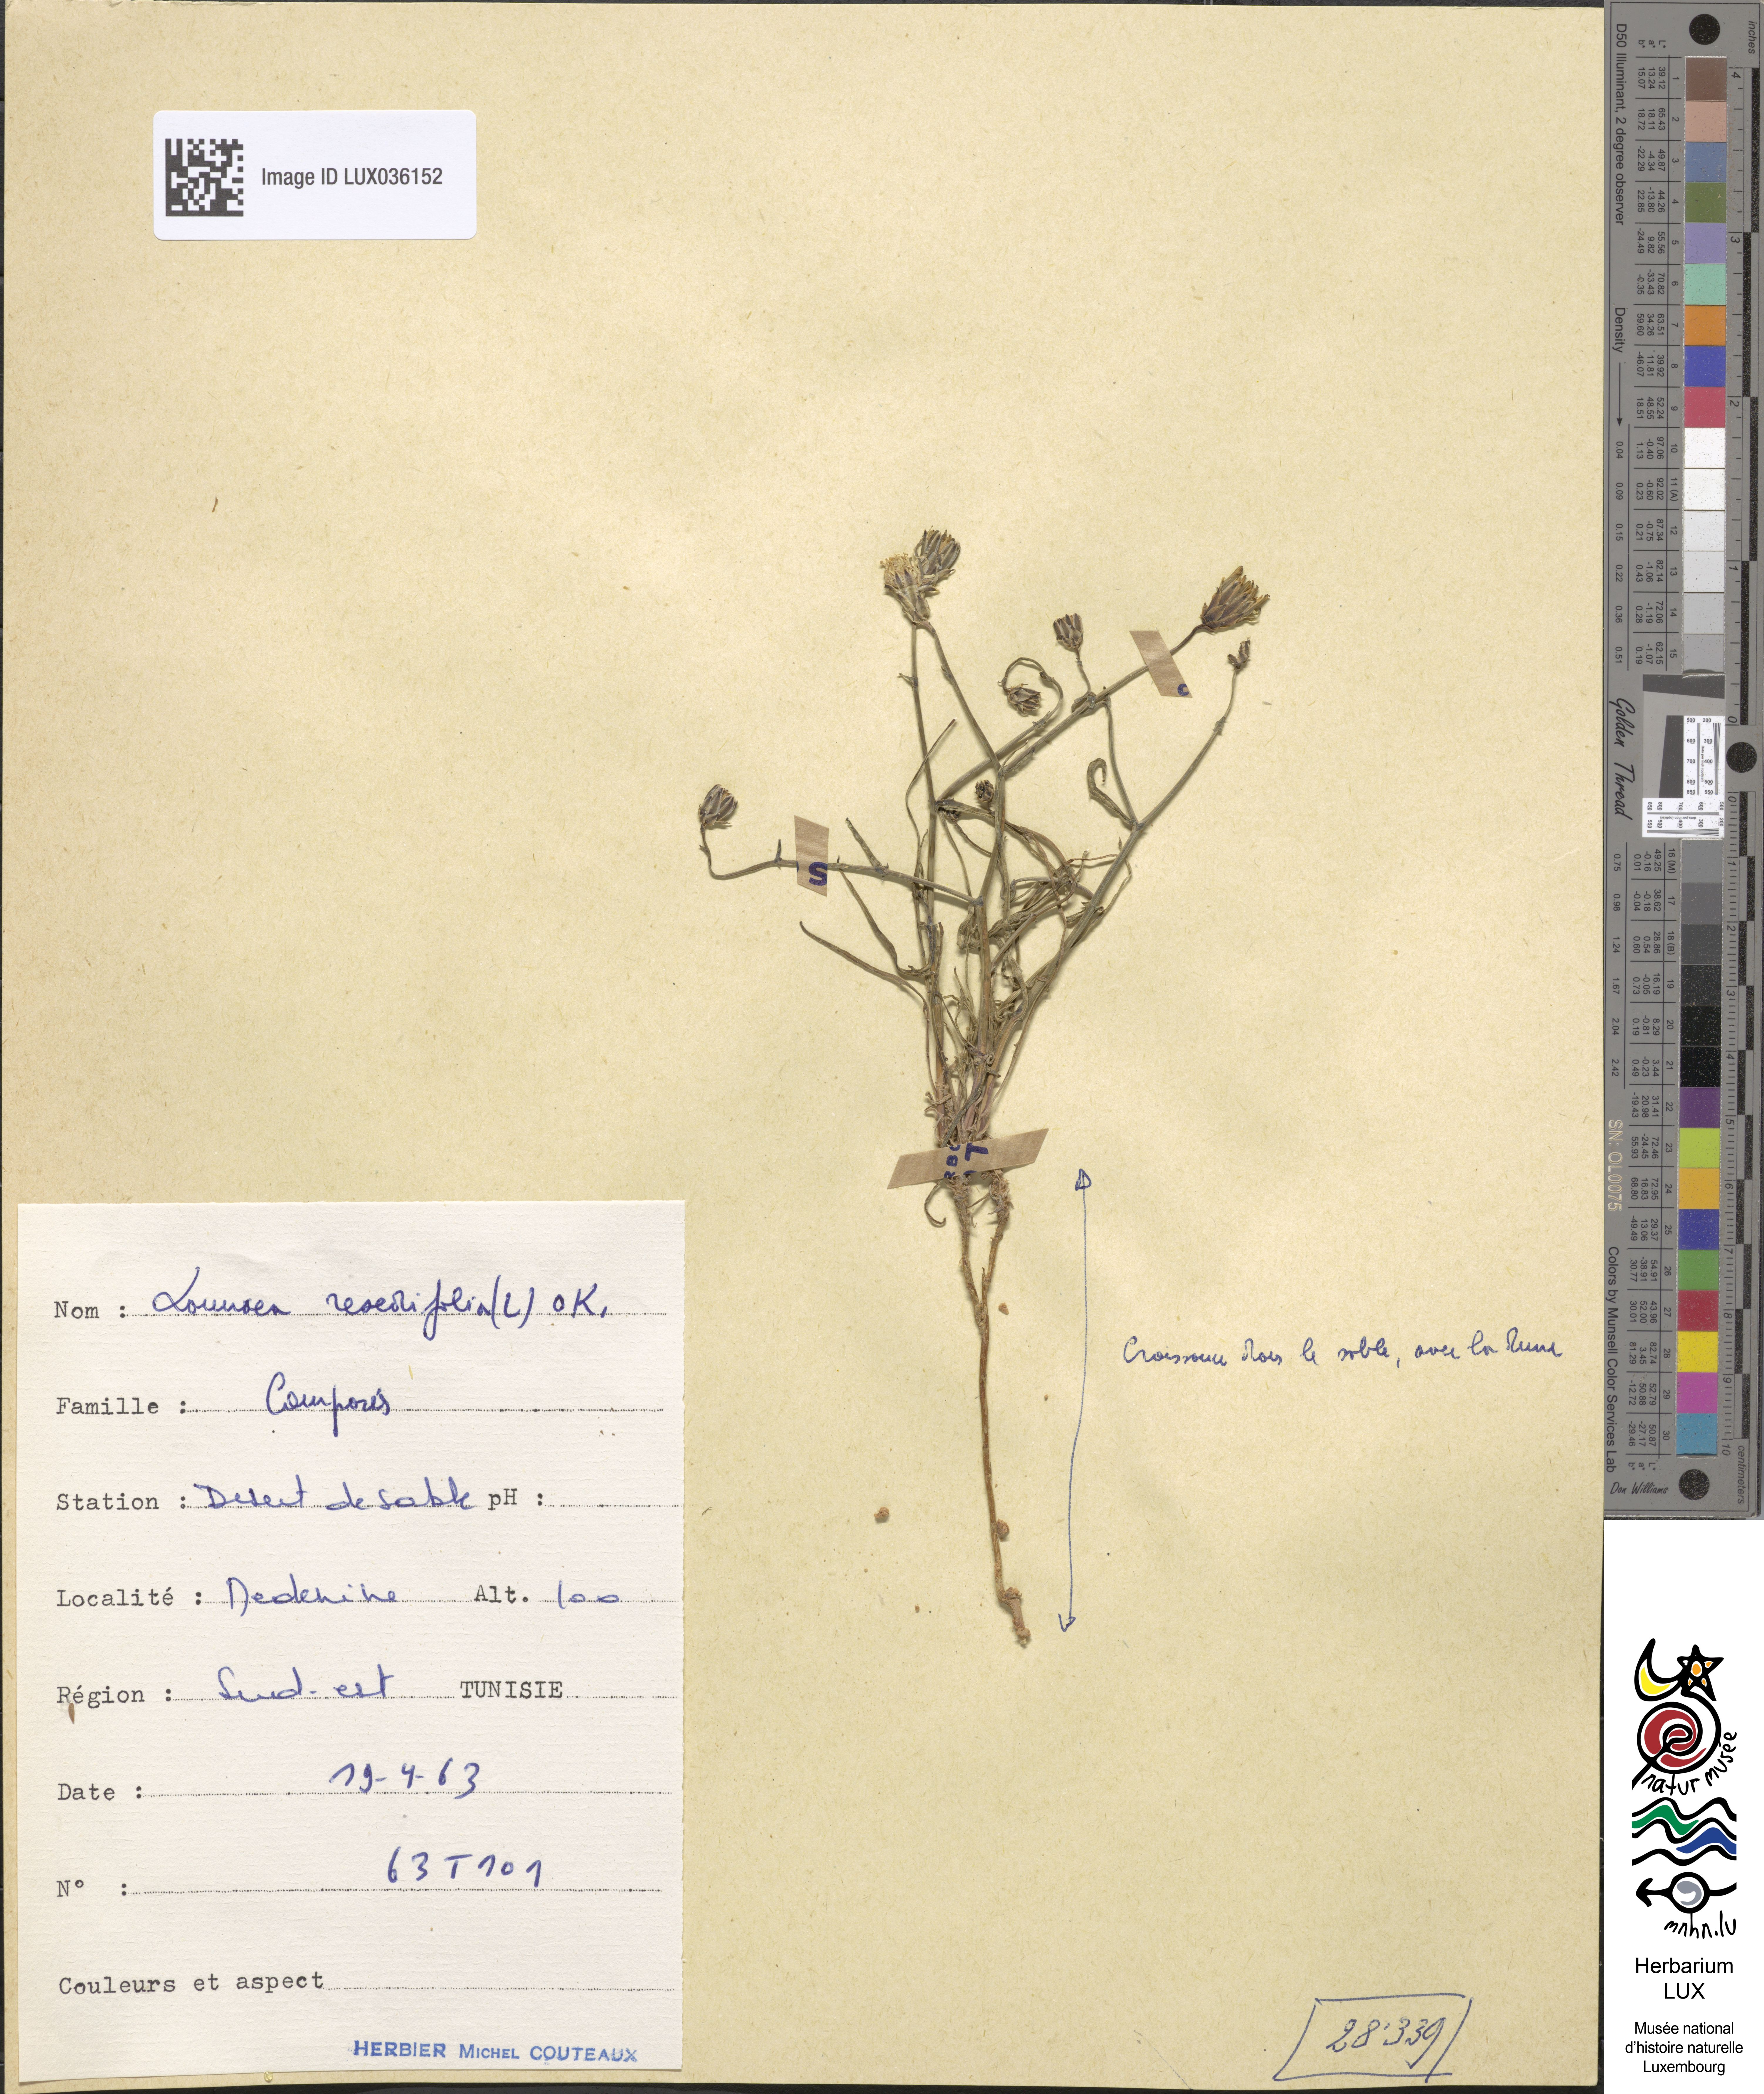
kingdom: Plantae
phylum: Tracheophyta
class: Magnoliopsida
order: Asterales
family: Asteraceae
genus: Launaea
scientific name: Launaea fragilis
